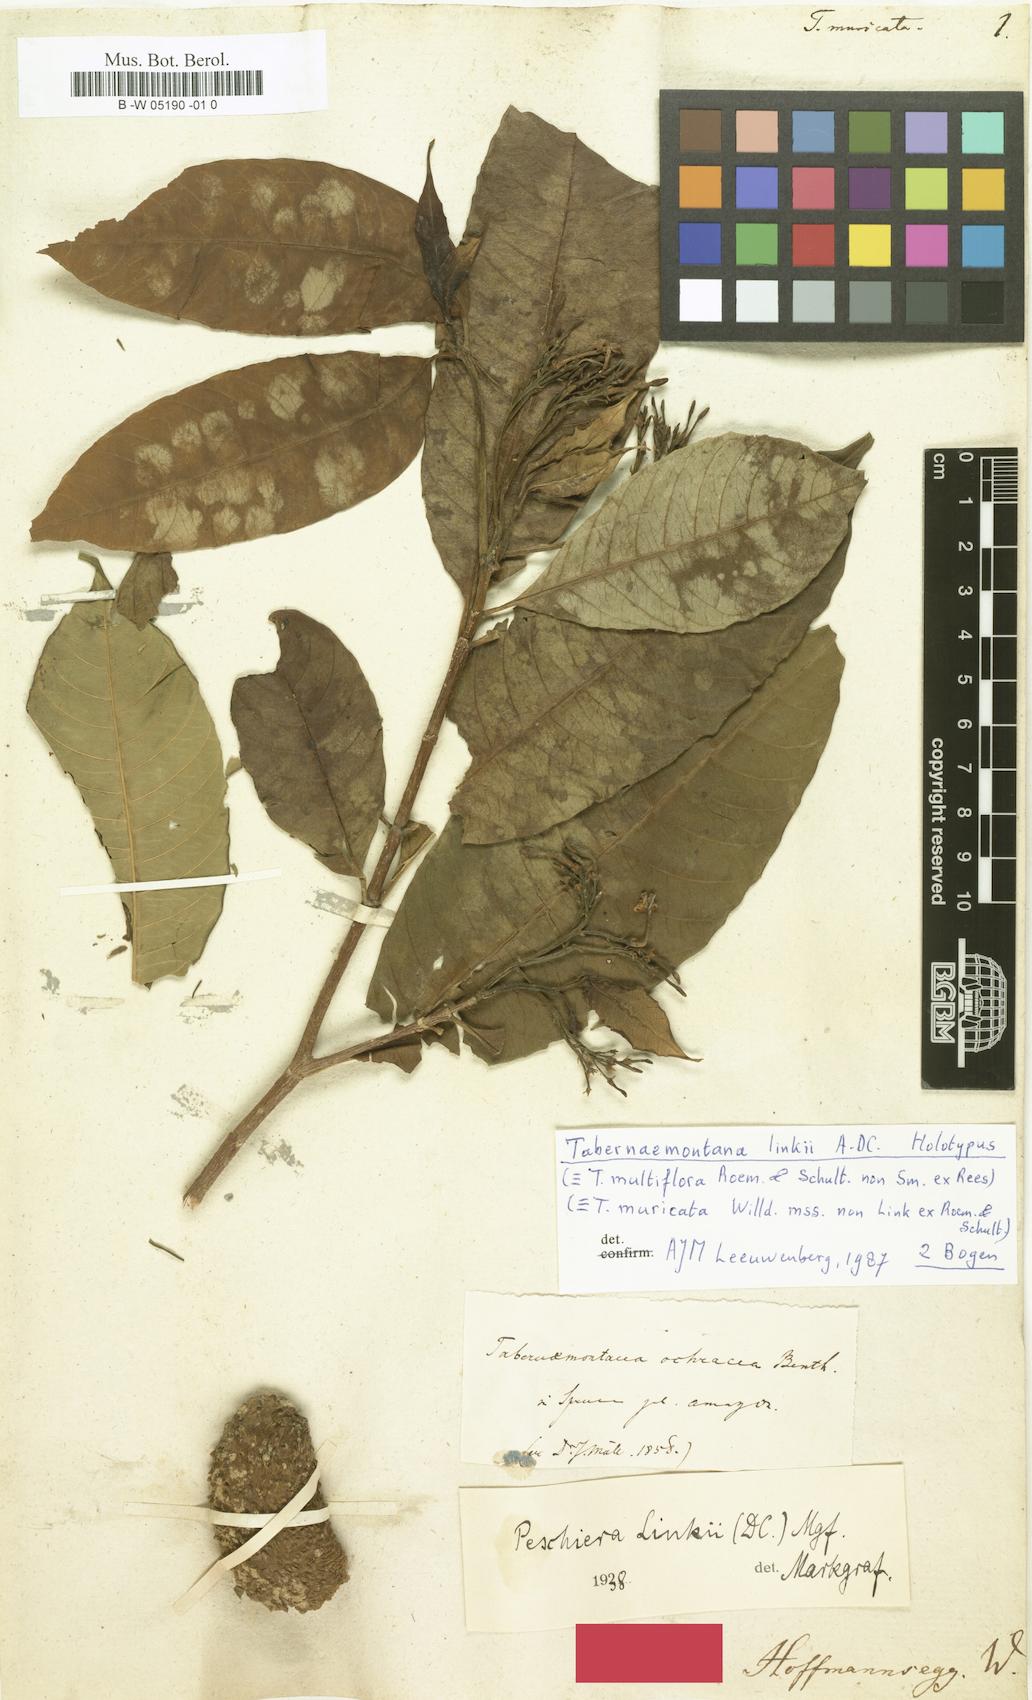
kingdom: Plantae
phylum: Tracheophyta
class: Magnoliopsida
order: Gentianales
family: Apocynaceae
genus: Tabernaemontana
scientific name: Tabernaemontana muricata
